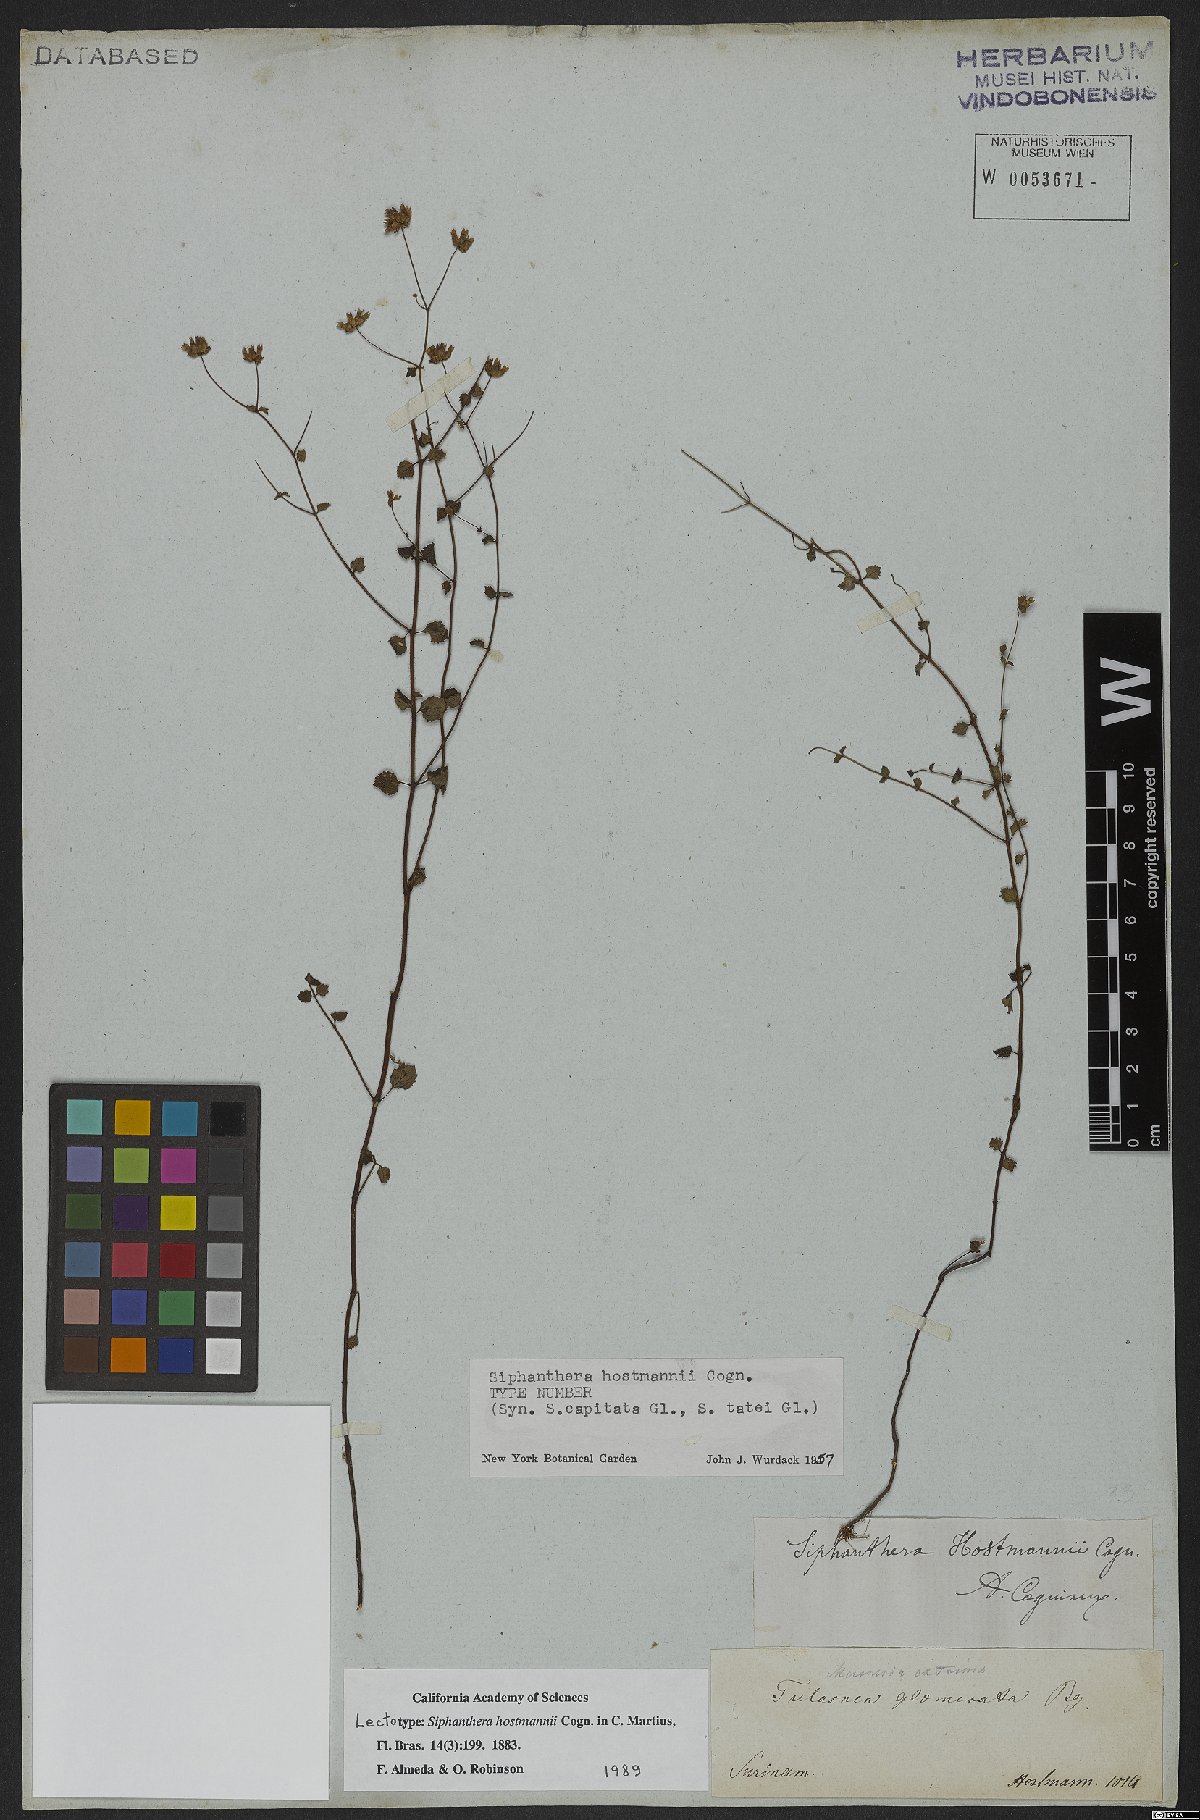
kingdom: Plantae
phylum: Tracheophyta
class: Magnoliopsida
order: Myrtales
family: Melastomataceae
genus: Siphanthera
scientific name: Siphanthera hostmannii
